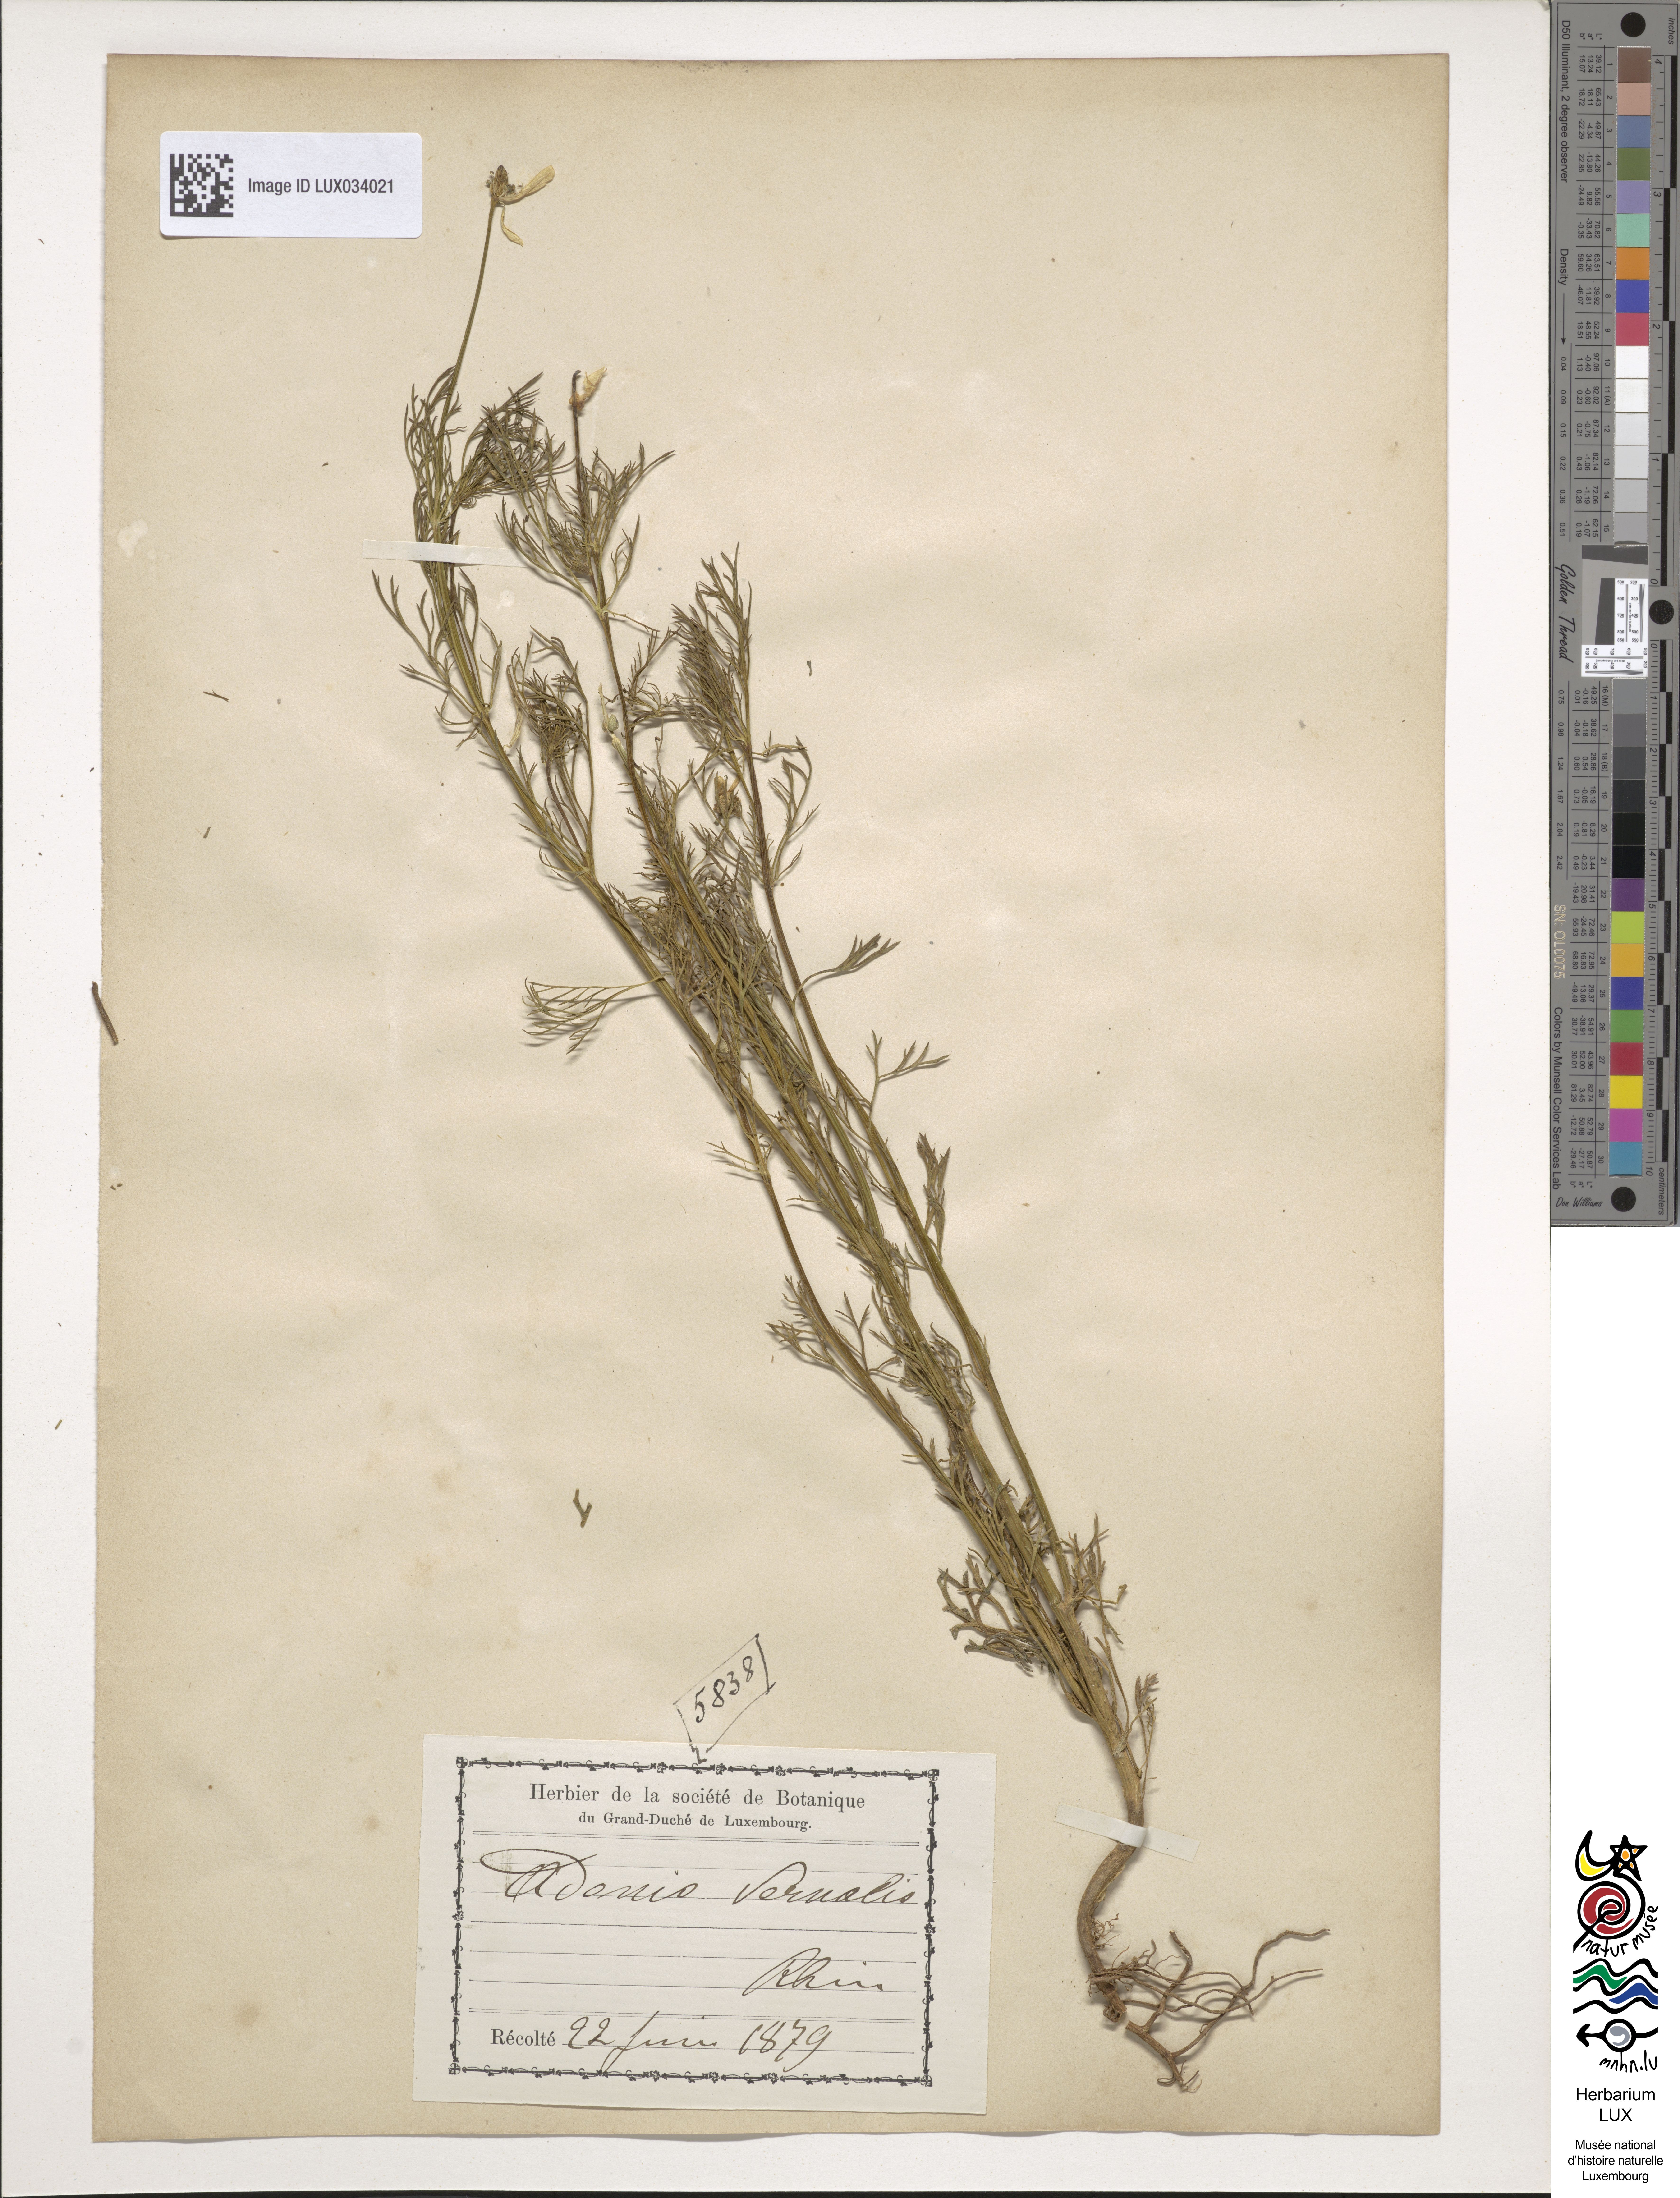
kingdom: Plantae
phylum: Tracheophyta
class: Magnoliopsida
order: Ranunculales
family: Ranunculaceae
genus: Adonis
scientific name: Adonis vernalis
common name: Yellow pheasants-eye
